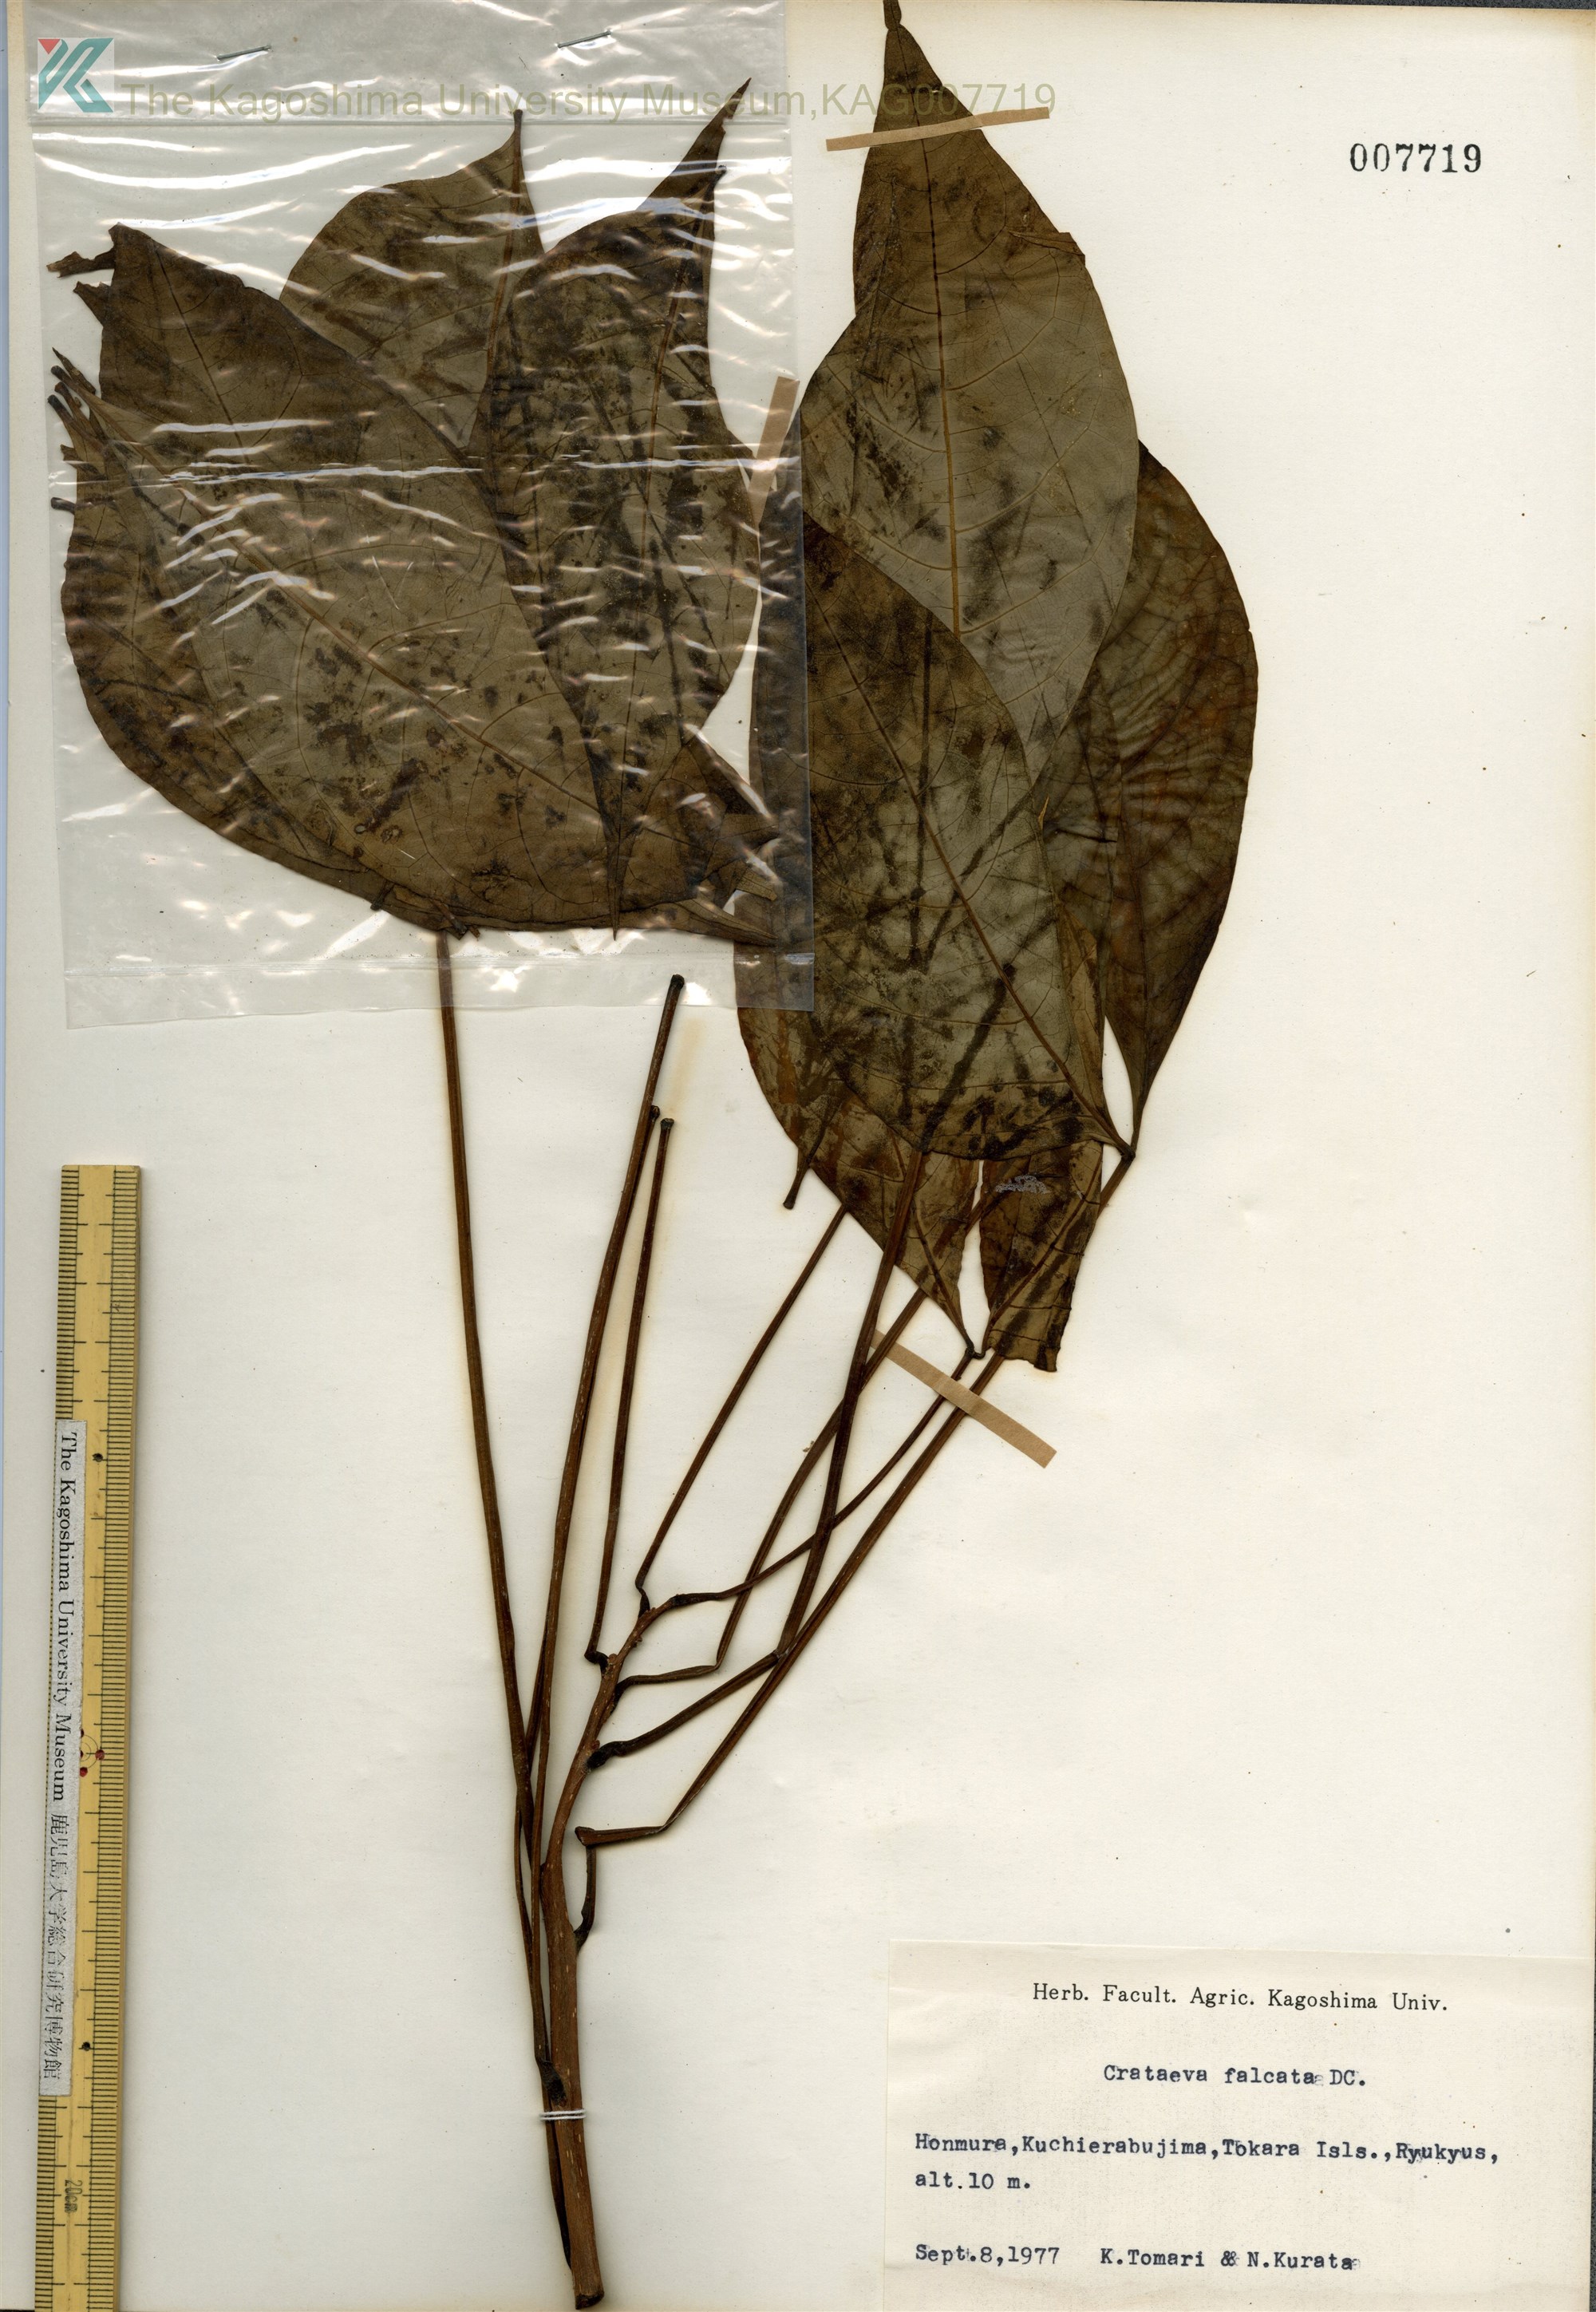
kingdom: Plantae
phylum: Tracheophyta
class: Magnoliopsida
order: Brassicales
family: Capparaceae
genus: Crateva
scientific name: Crateva formosensis
